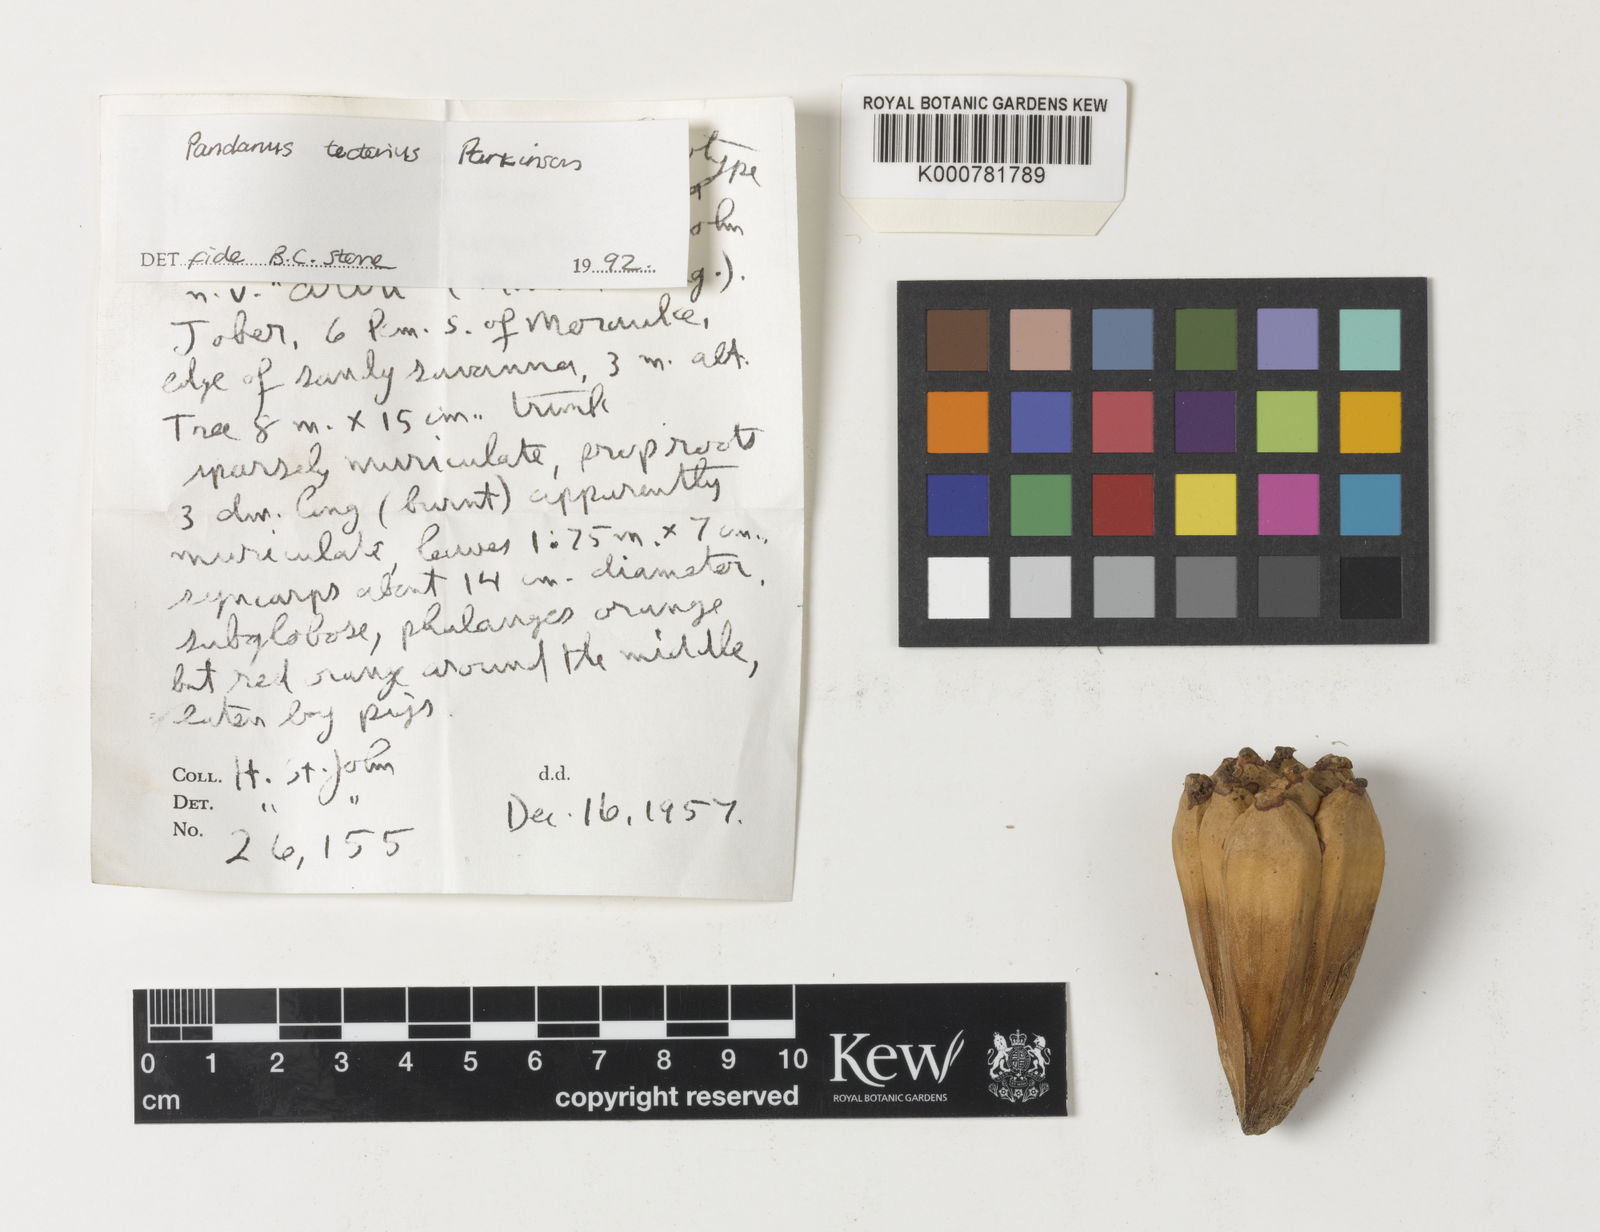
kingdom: Plantae
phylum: Tracheophyta
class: Liliopsida
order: Pandanales
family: Pandanaceae
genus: Pandanus
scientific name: Pandanus
